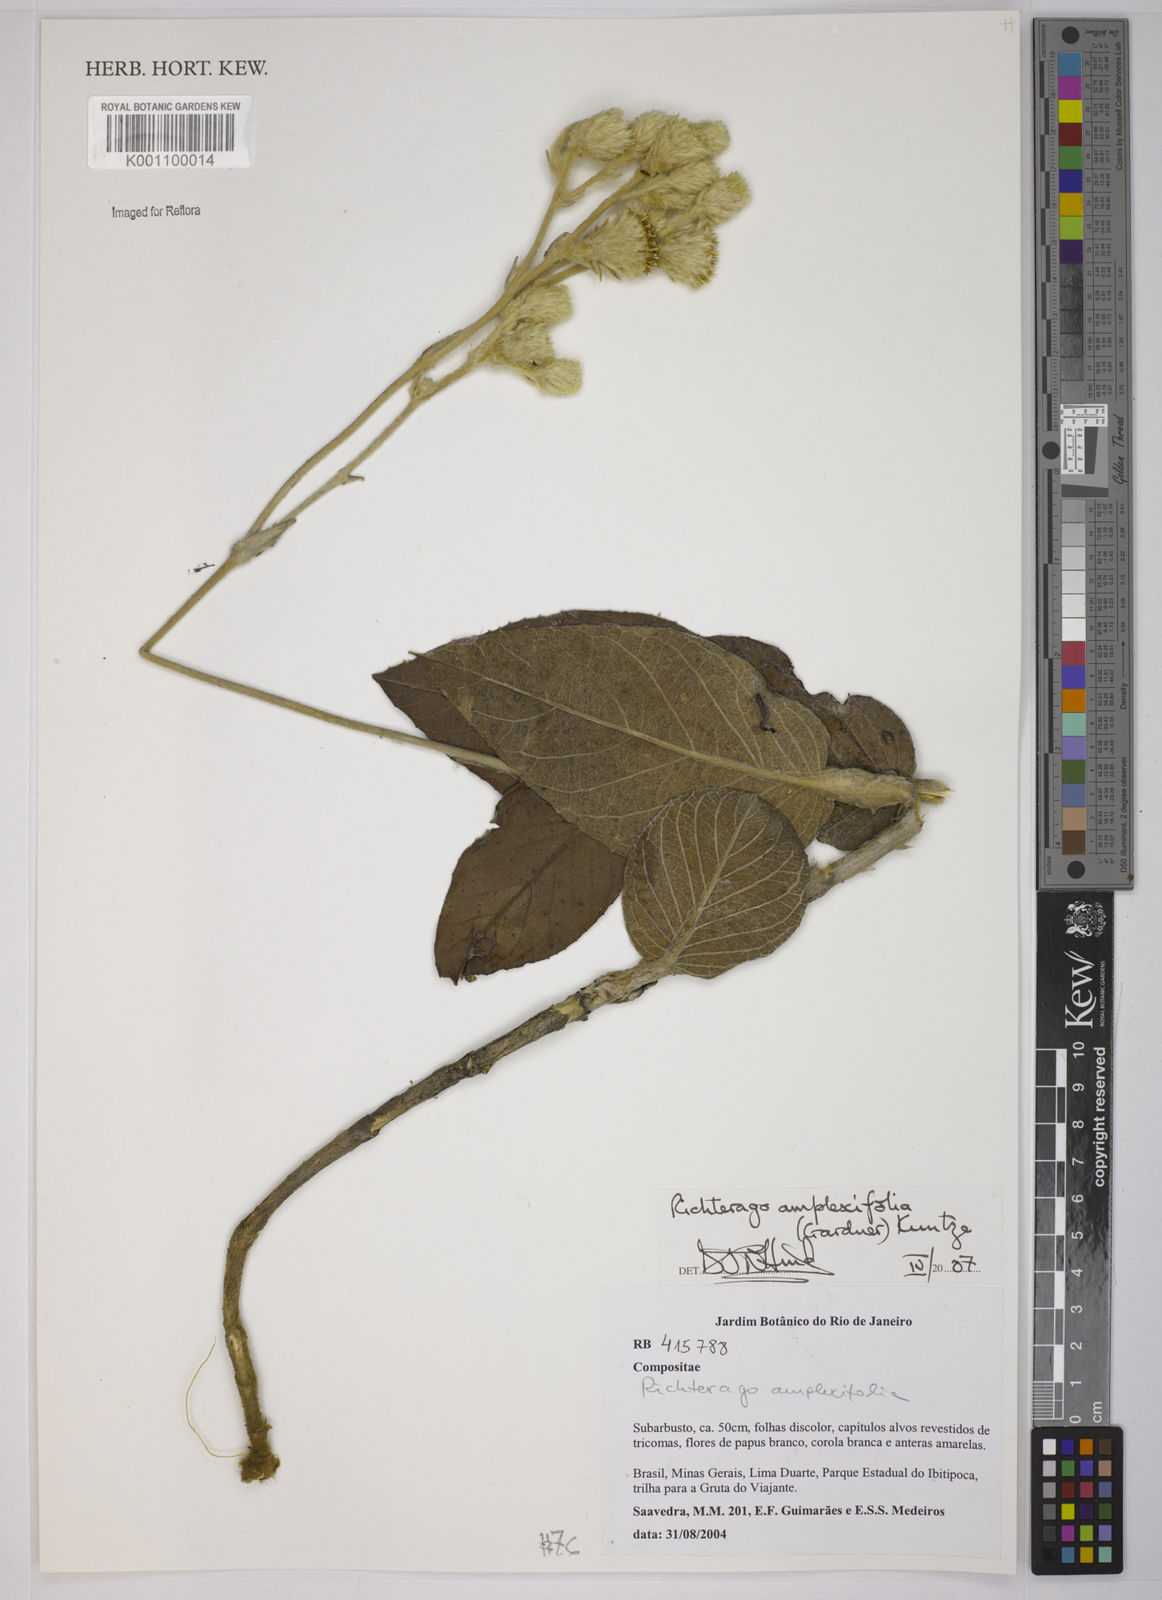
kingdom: Plantae
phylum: Tracheophyta
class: Magnoliopsida
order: Asterales
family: Asteraceae
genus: Richterago
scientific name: Richterago amplexifolia
